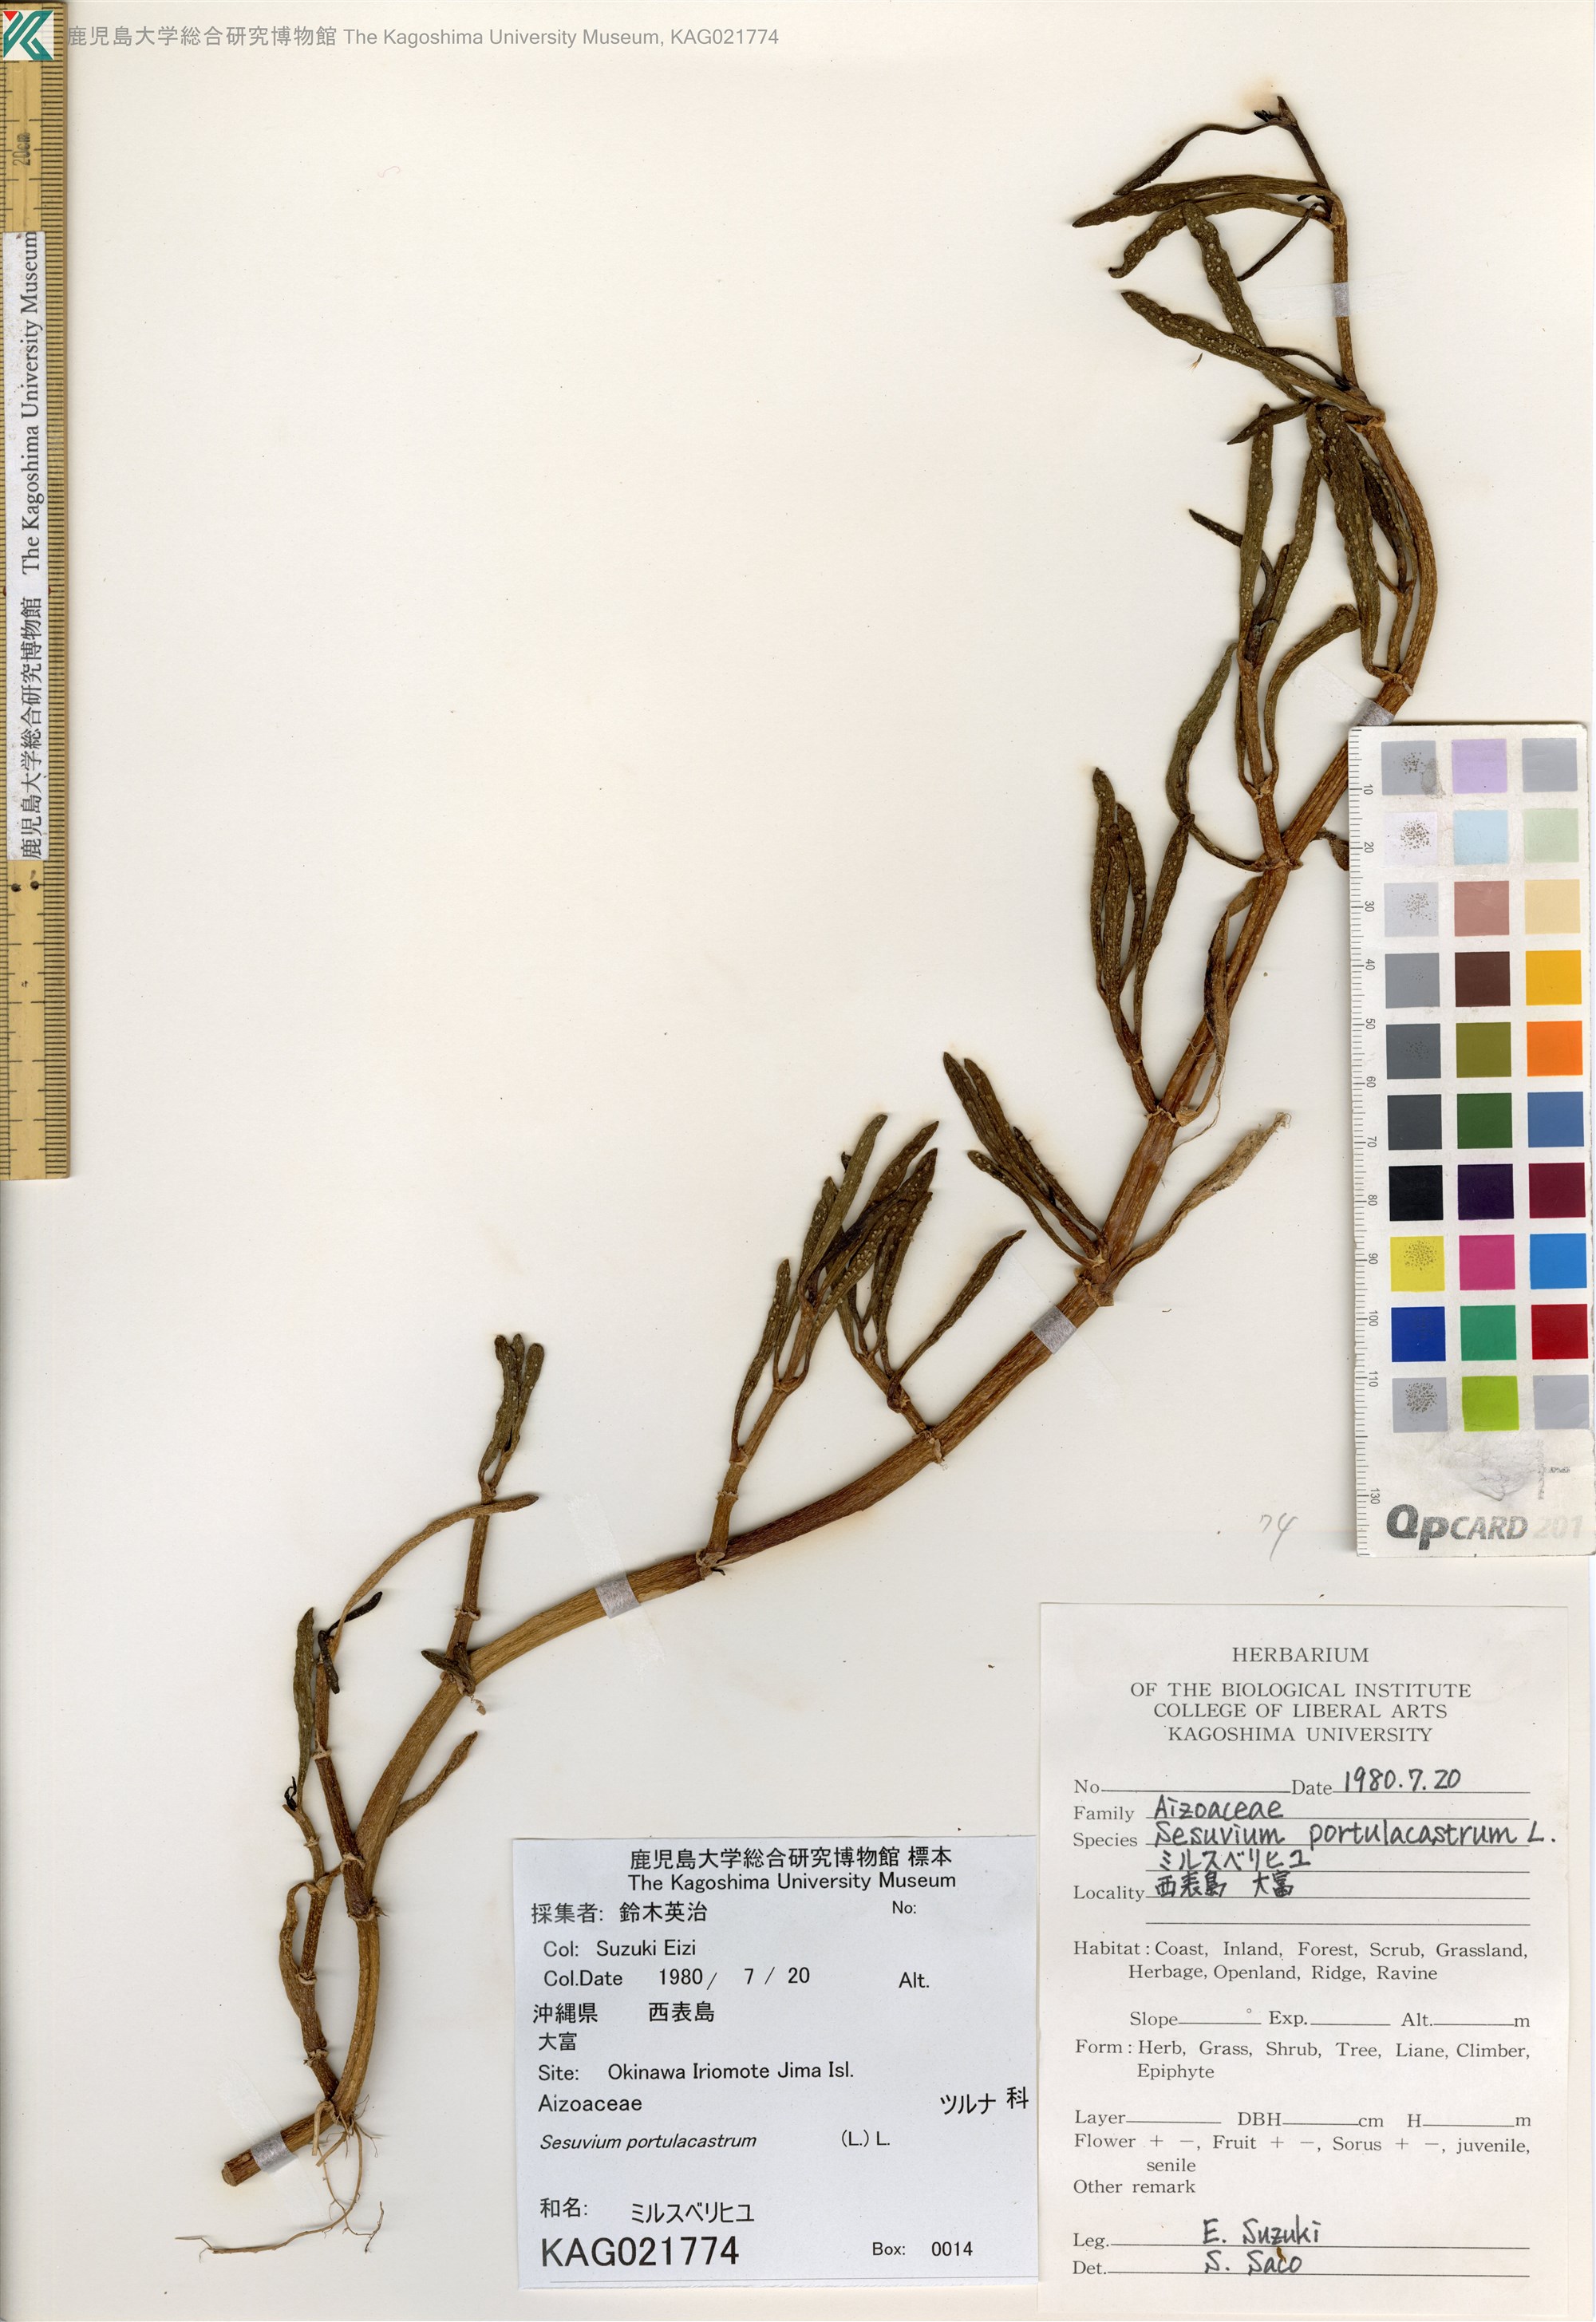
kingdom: Plantae
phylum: Tracheophyta
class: Magnoliopsida
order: Caryophyllales
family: Aizoaceae
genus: Sesuvium
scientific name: Sesuvium portulacastrum
